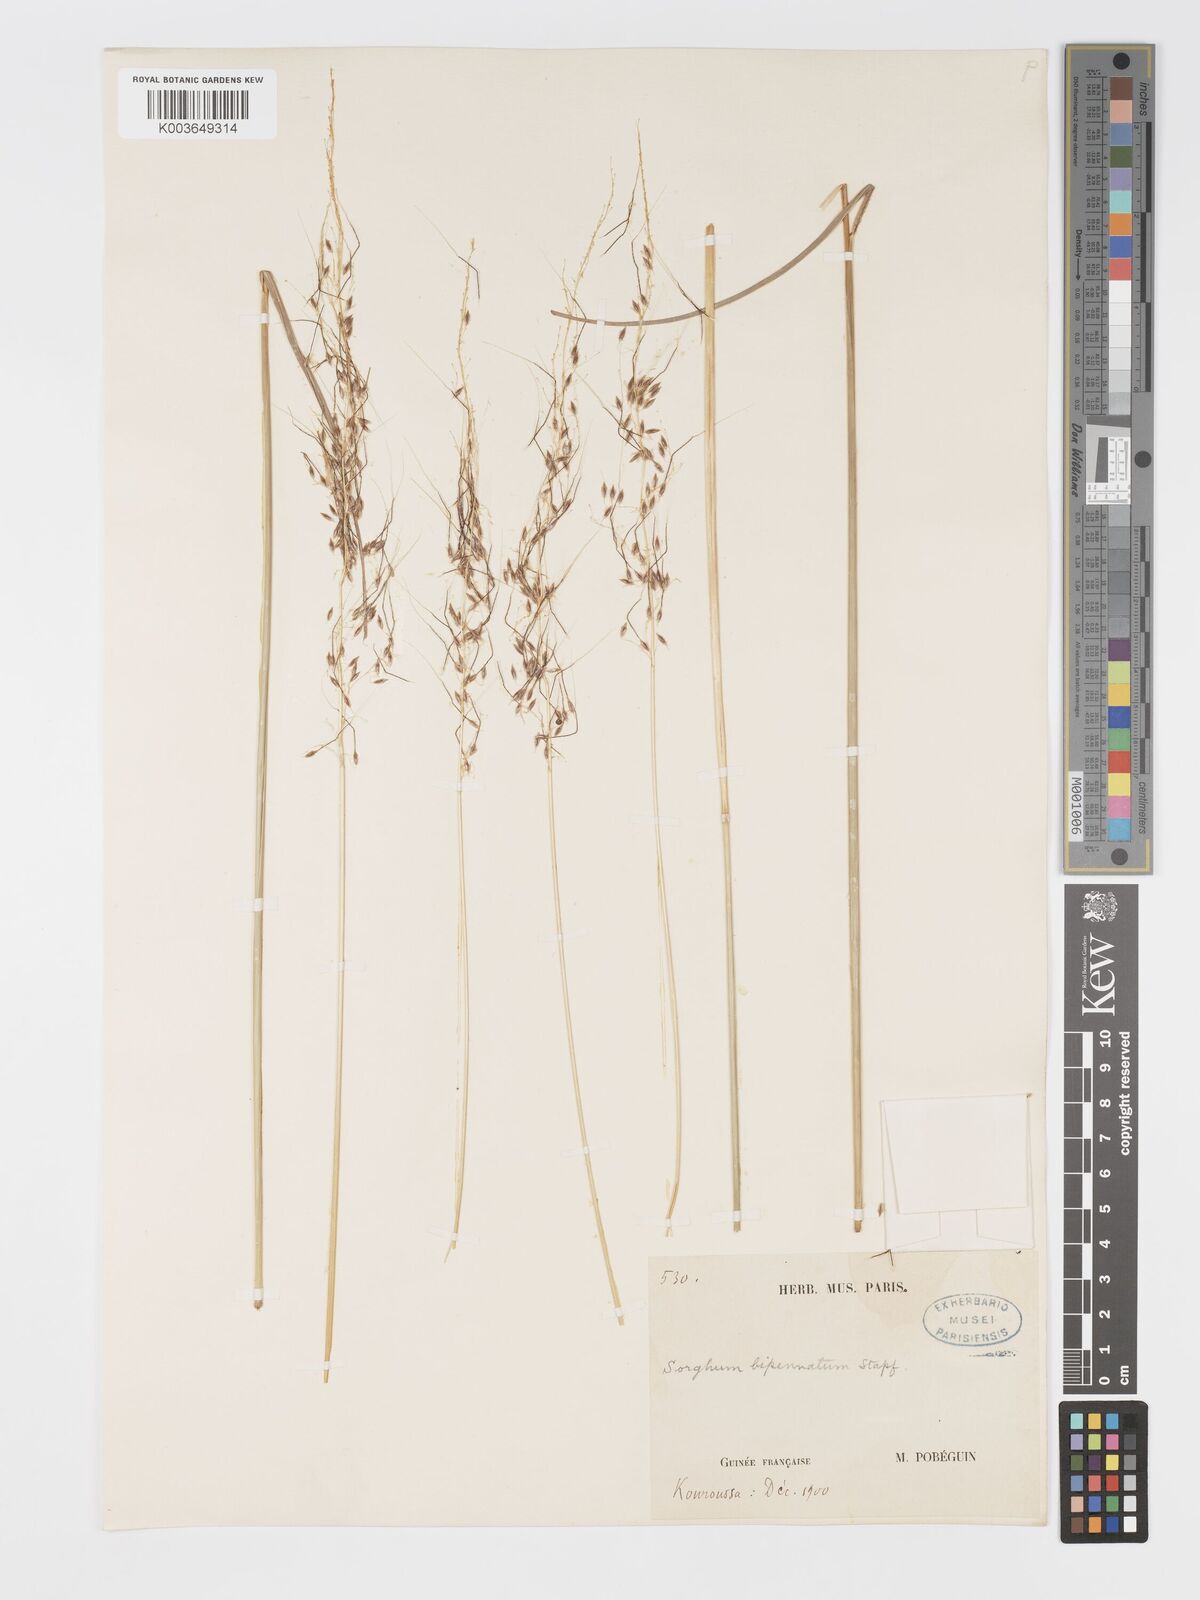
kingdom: Plantae
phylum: Tracheophyta
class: Liliopsida
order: Poales
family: Poaceae
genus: Sorghastrum
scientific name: Sorghastrum incompletum
